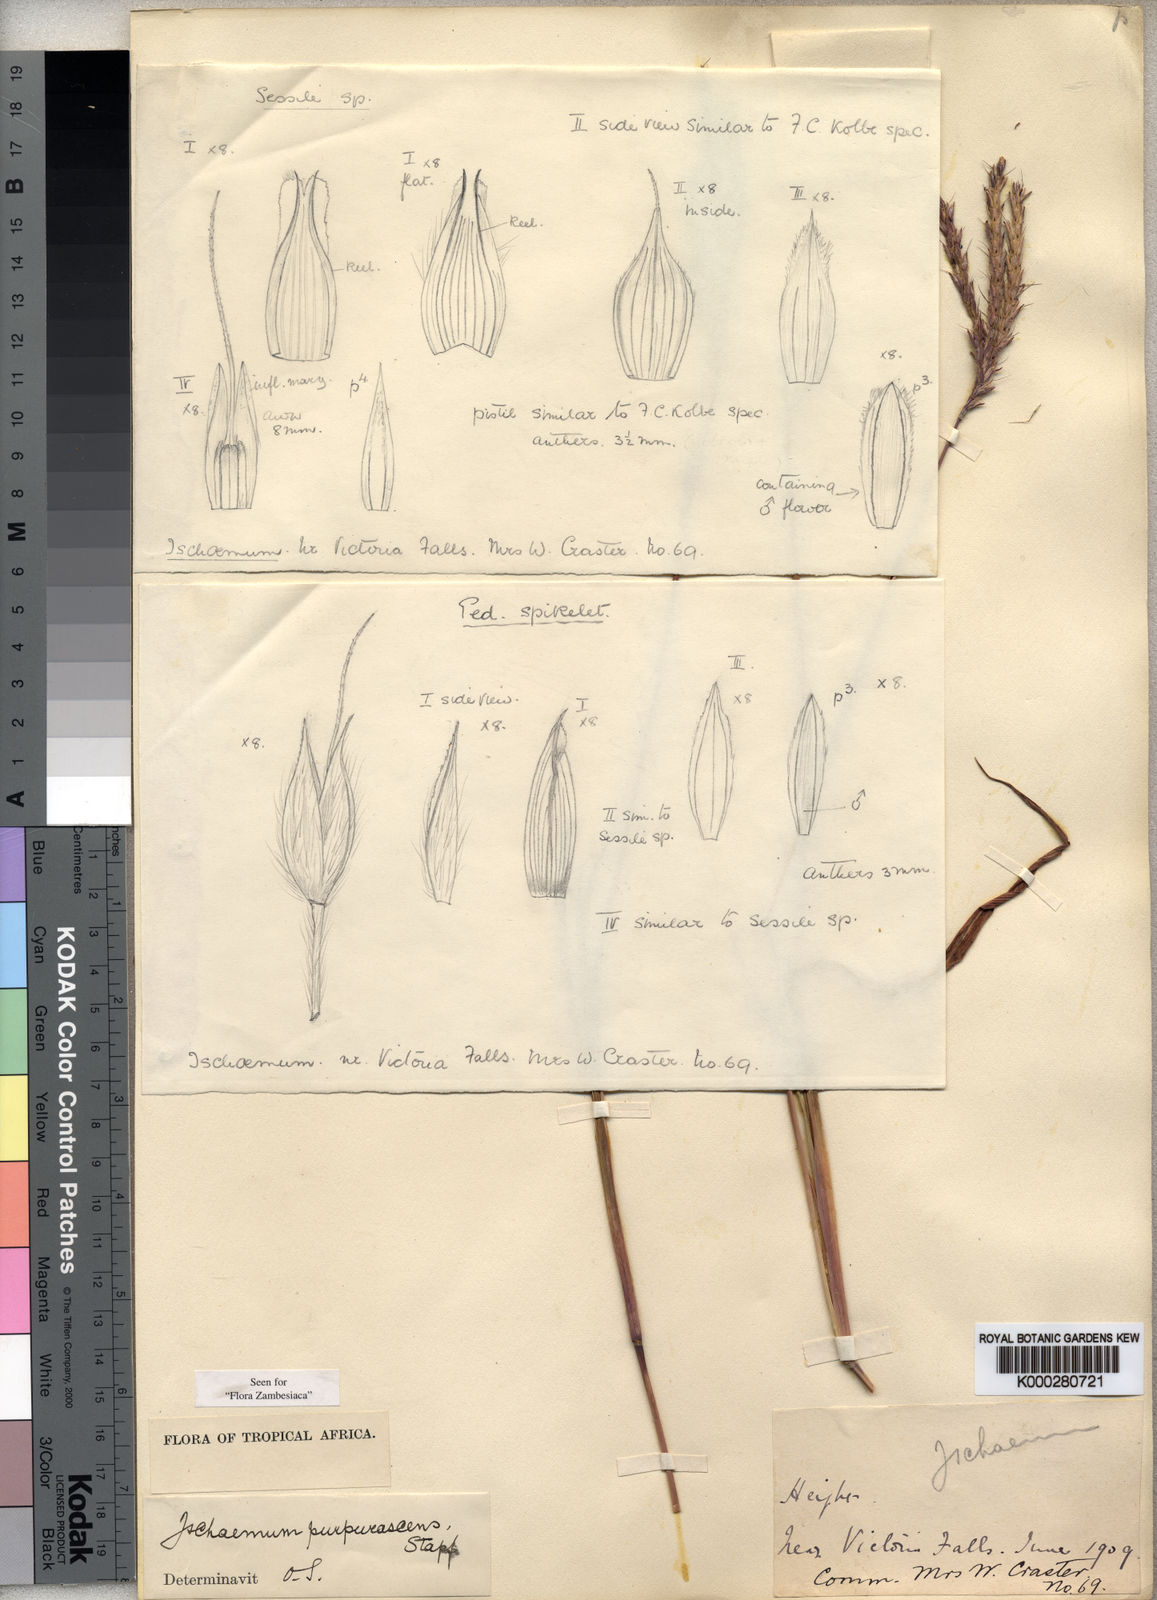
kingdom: Plantae
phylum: Tracheophyta
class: Liliopsida
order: Poales
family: Poaceae
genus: Sarga
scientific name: Sarga purpureosericea
